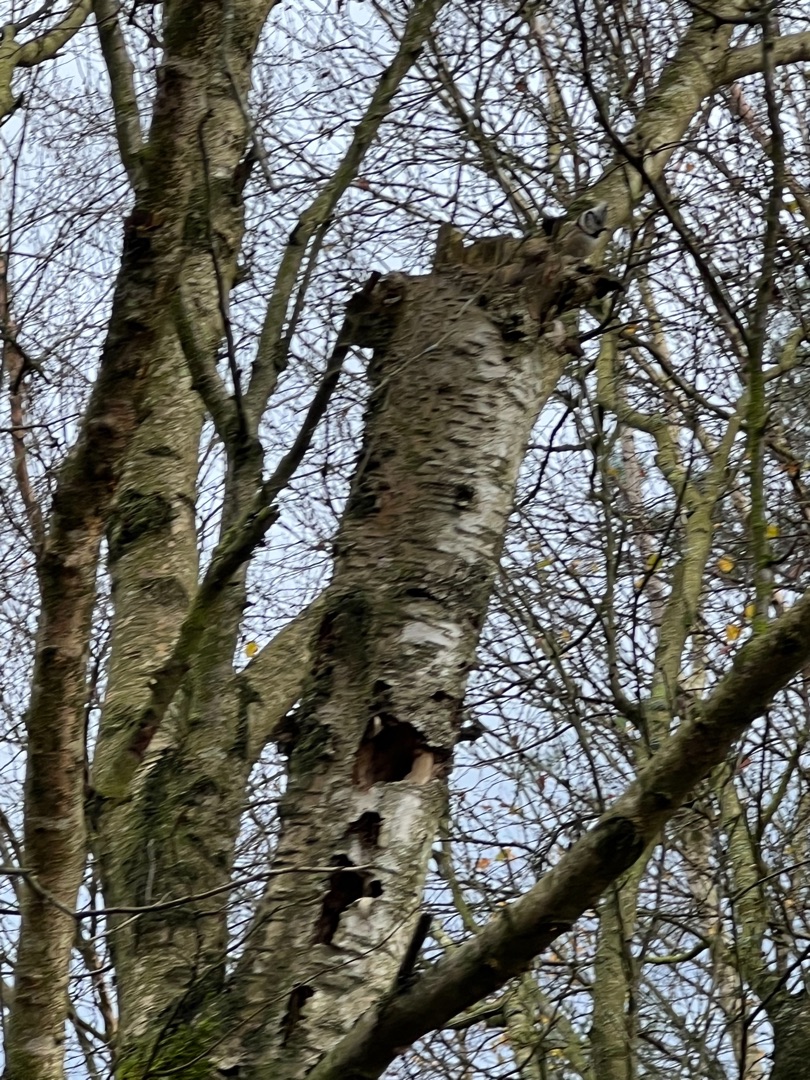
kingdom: Animalia
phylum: Chordata
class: Aves
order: Passeriformes
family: Paridae
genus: Lophophanes
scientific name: Lophophanes cristatus
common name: Topmejse
